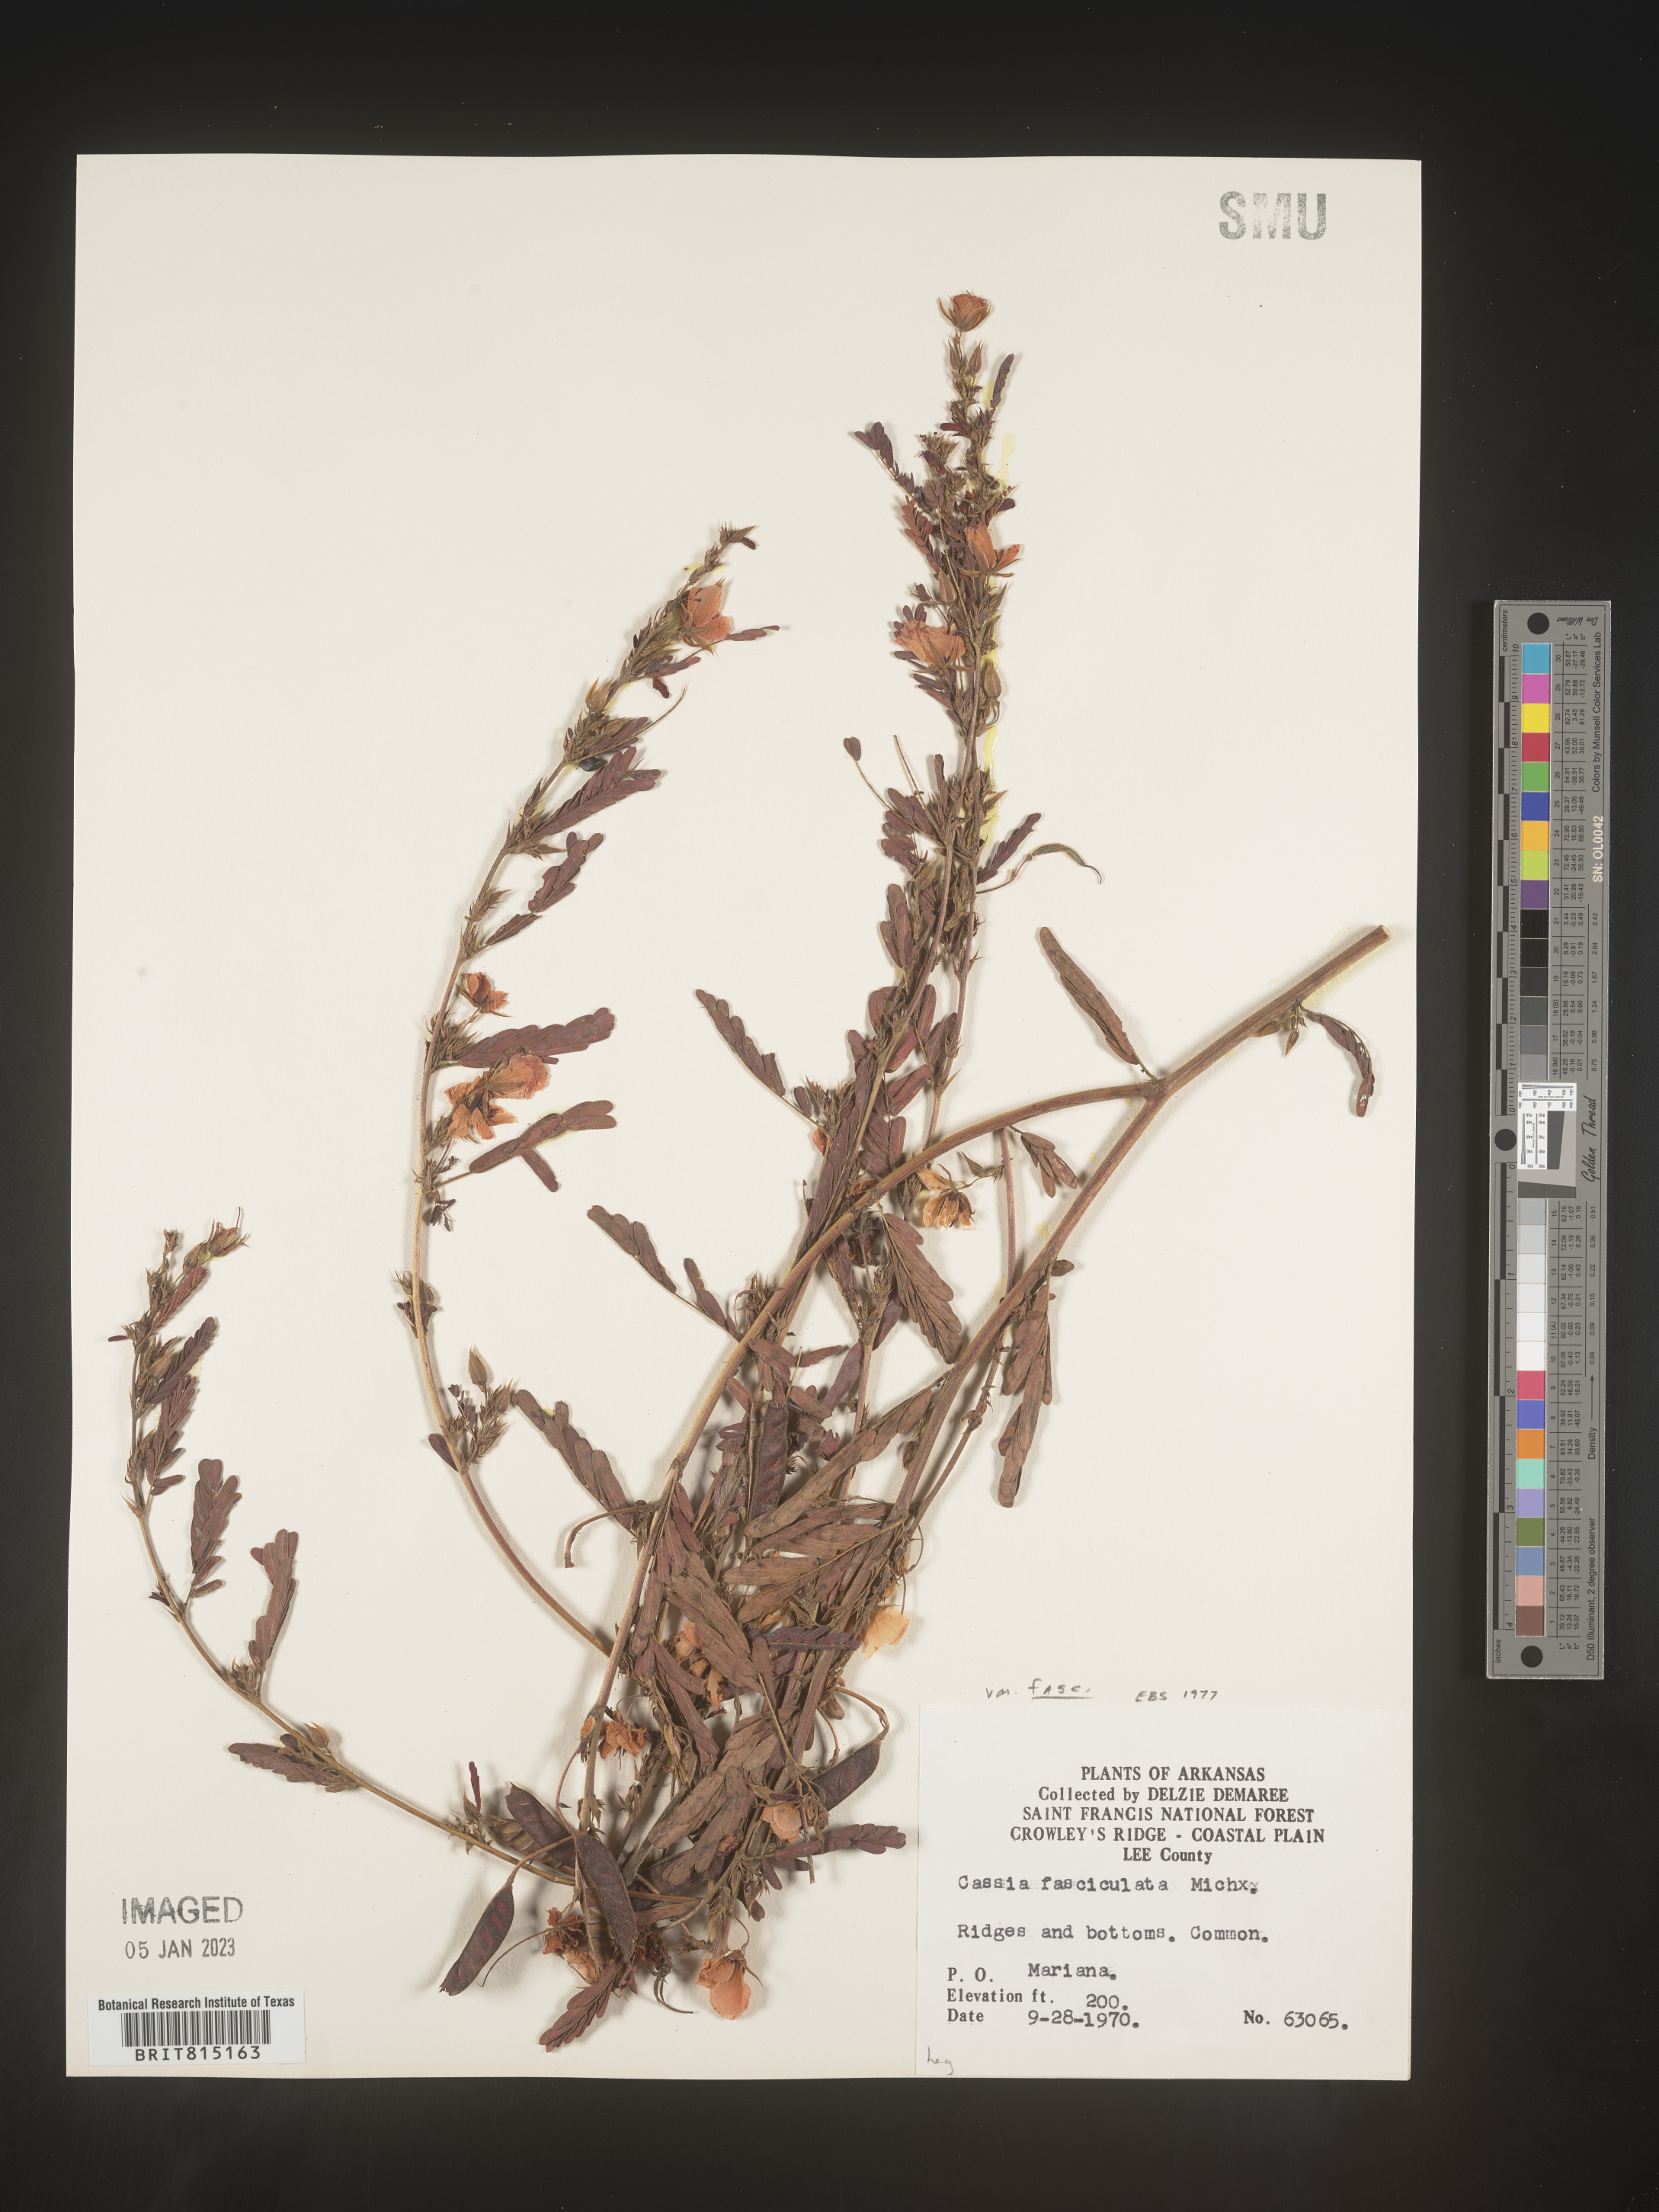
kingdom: Plantae
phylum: Tracheophyta
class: Magnoliopsida
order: Fabales
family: Fabaceae
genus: Chamaecrista
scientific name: Chamaecrista fasciculata
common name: Golden cassia
